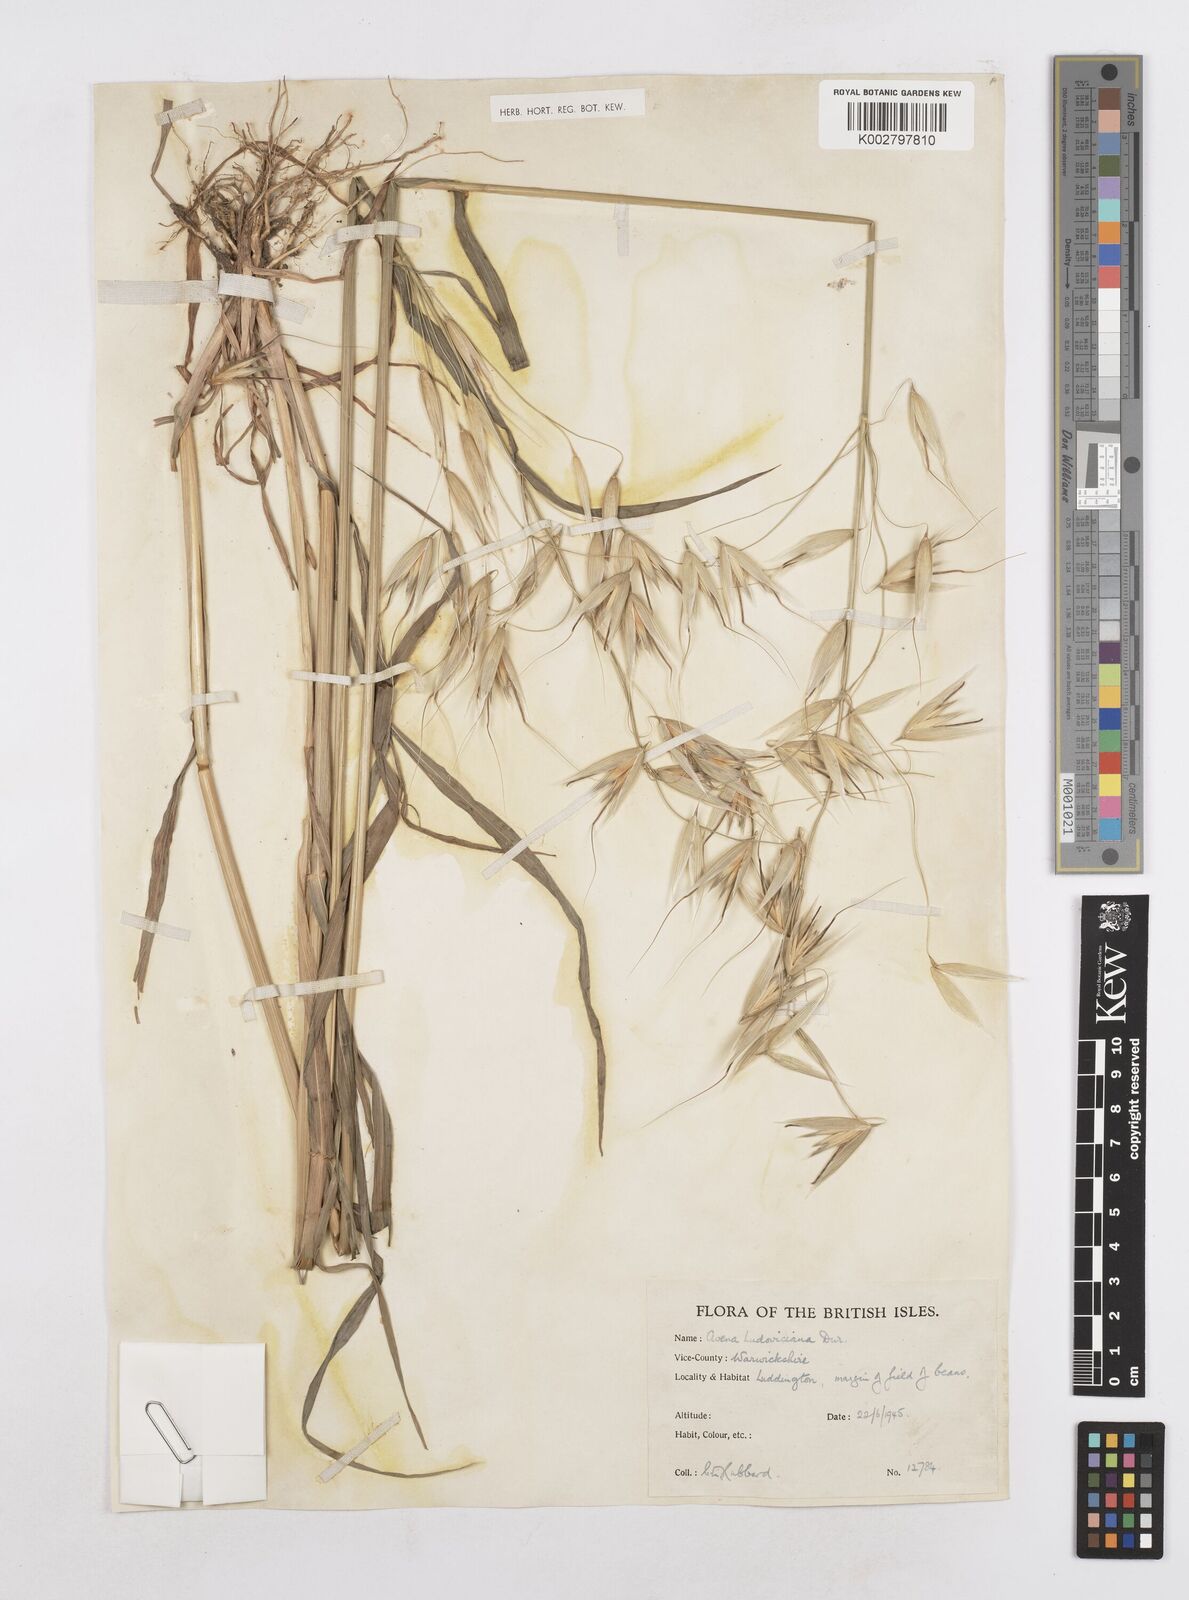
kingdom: Plantae
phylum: Tracheophyta
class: Liliopsida
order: Poales
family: Poaceae
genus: Avena
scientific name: Avena sterilis
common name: Animated oat
